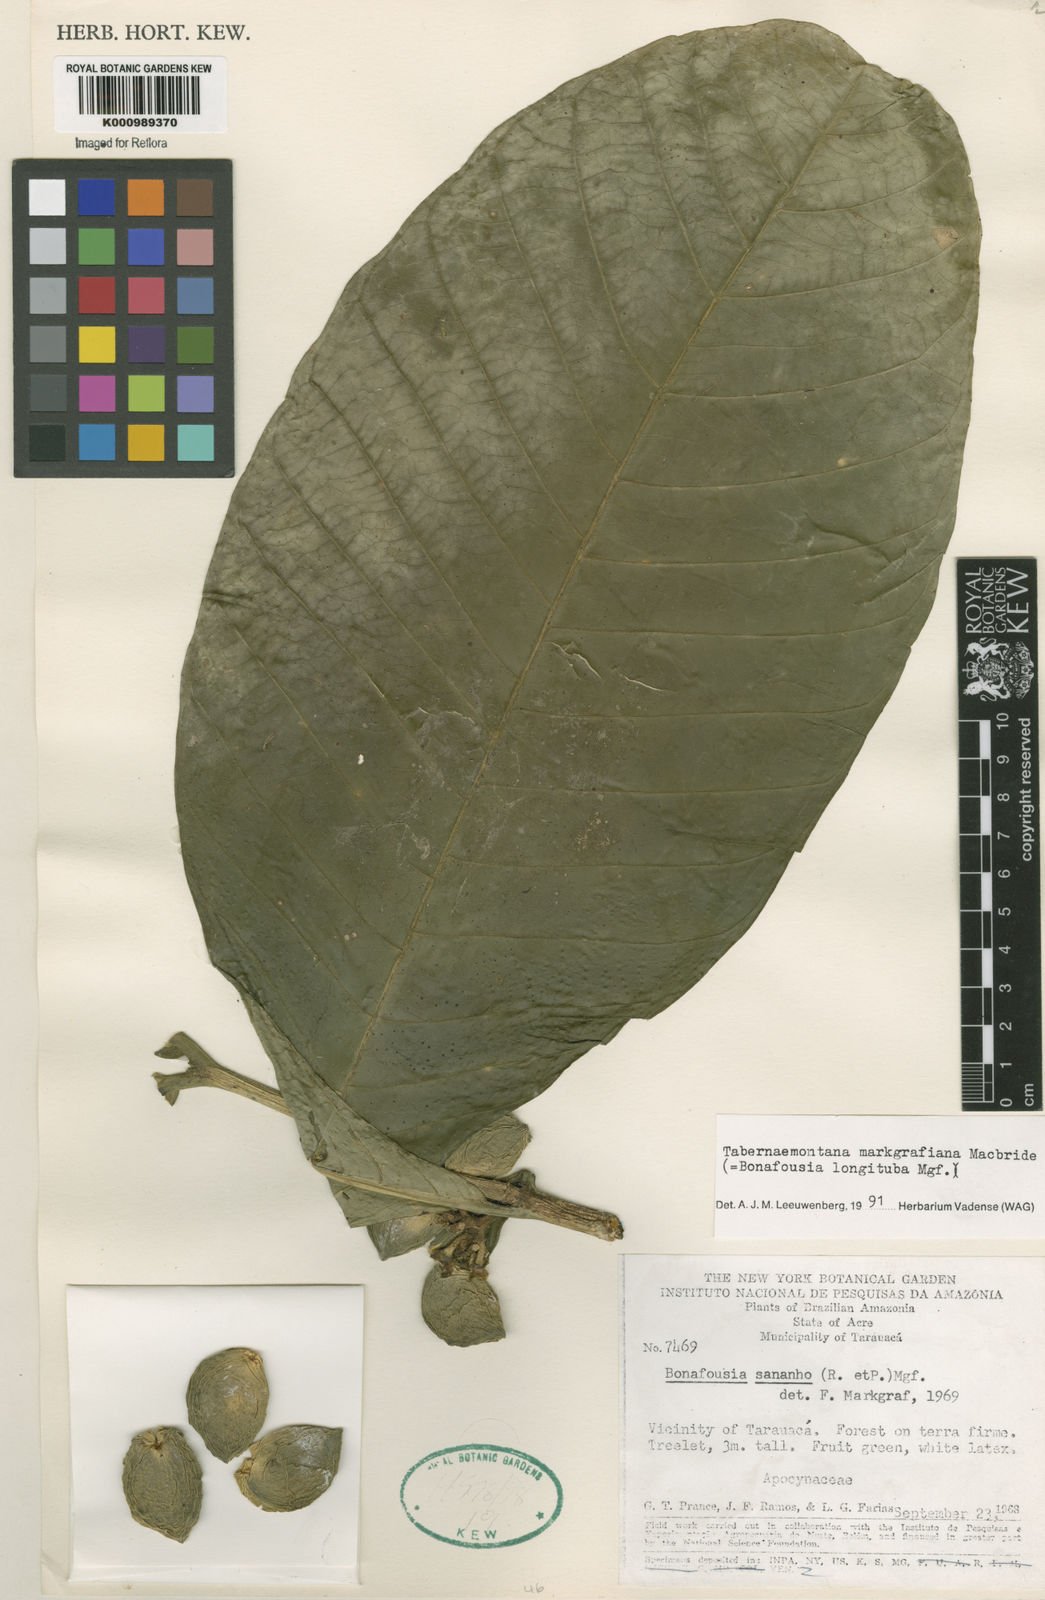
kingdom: Plantae
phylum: Tracheophyta
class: Magnoliopsida
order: Gentianales
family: Apocynaceae
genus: Tabernaemontana
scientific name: Tabernaemontana markgrafiana
